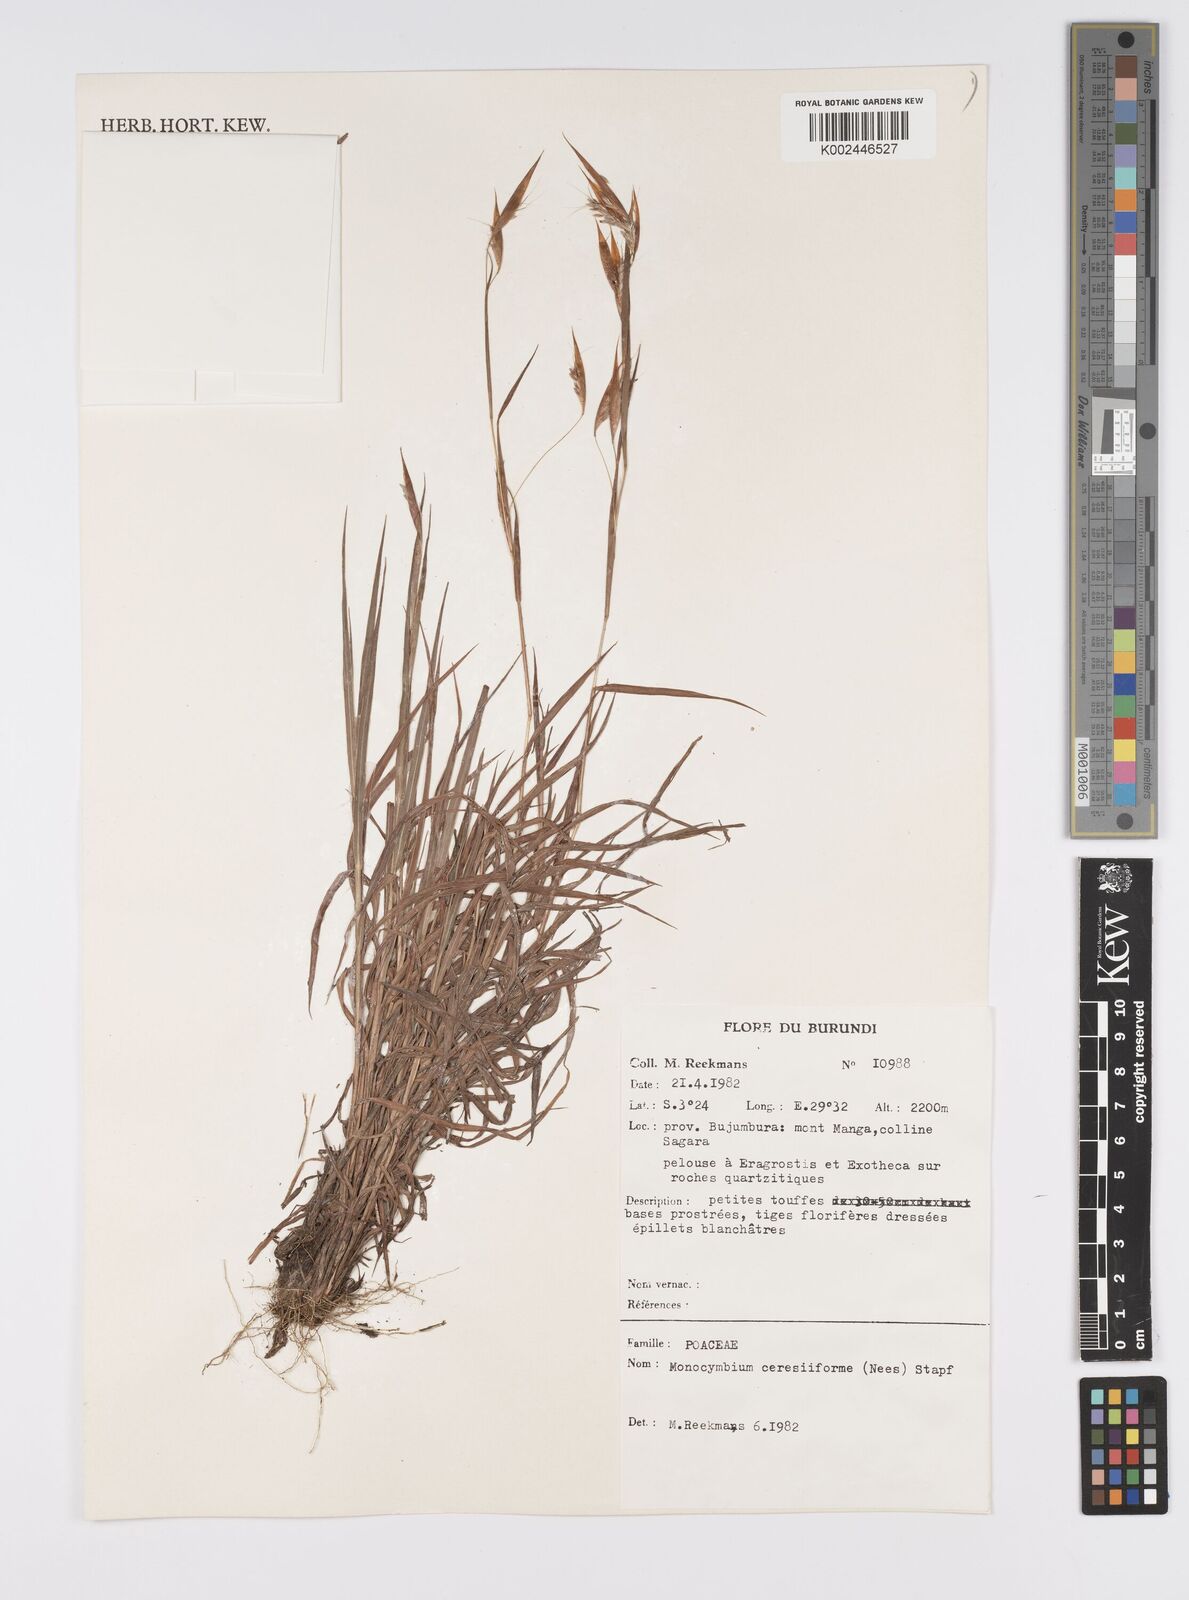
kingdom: Plantae
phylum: Tracheophyta
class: Liliopsida
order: Poales
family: Poaceae
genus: Monocymbium
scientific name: Monocymbium ceresiiforme
